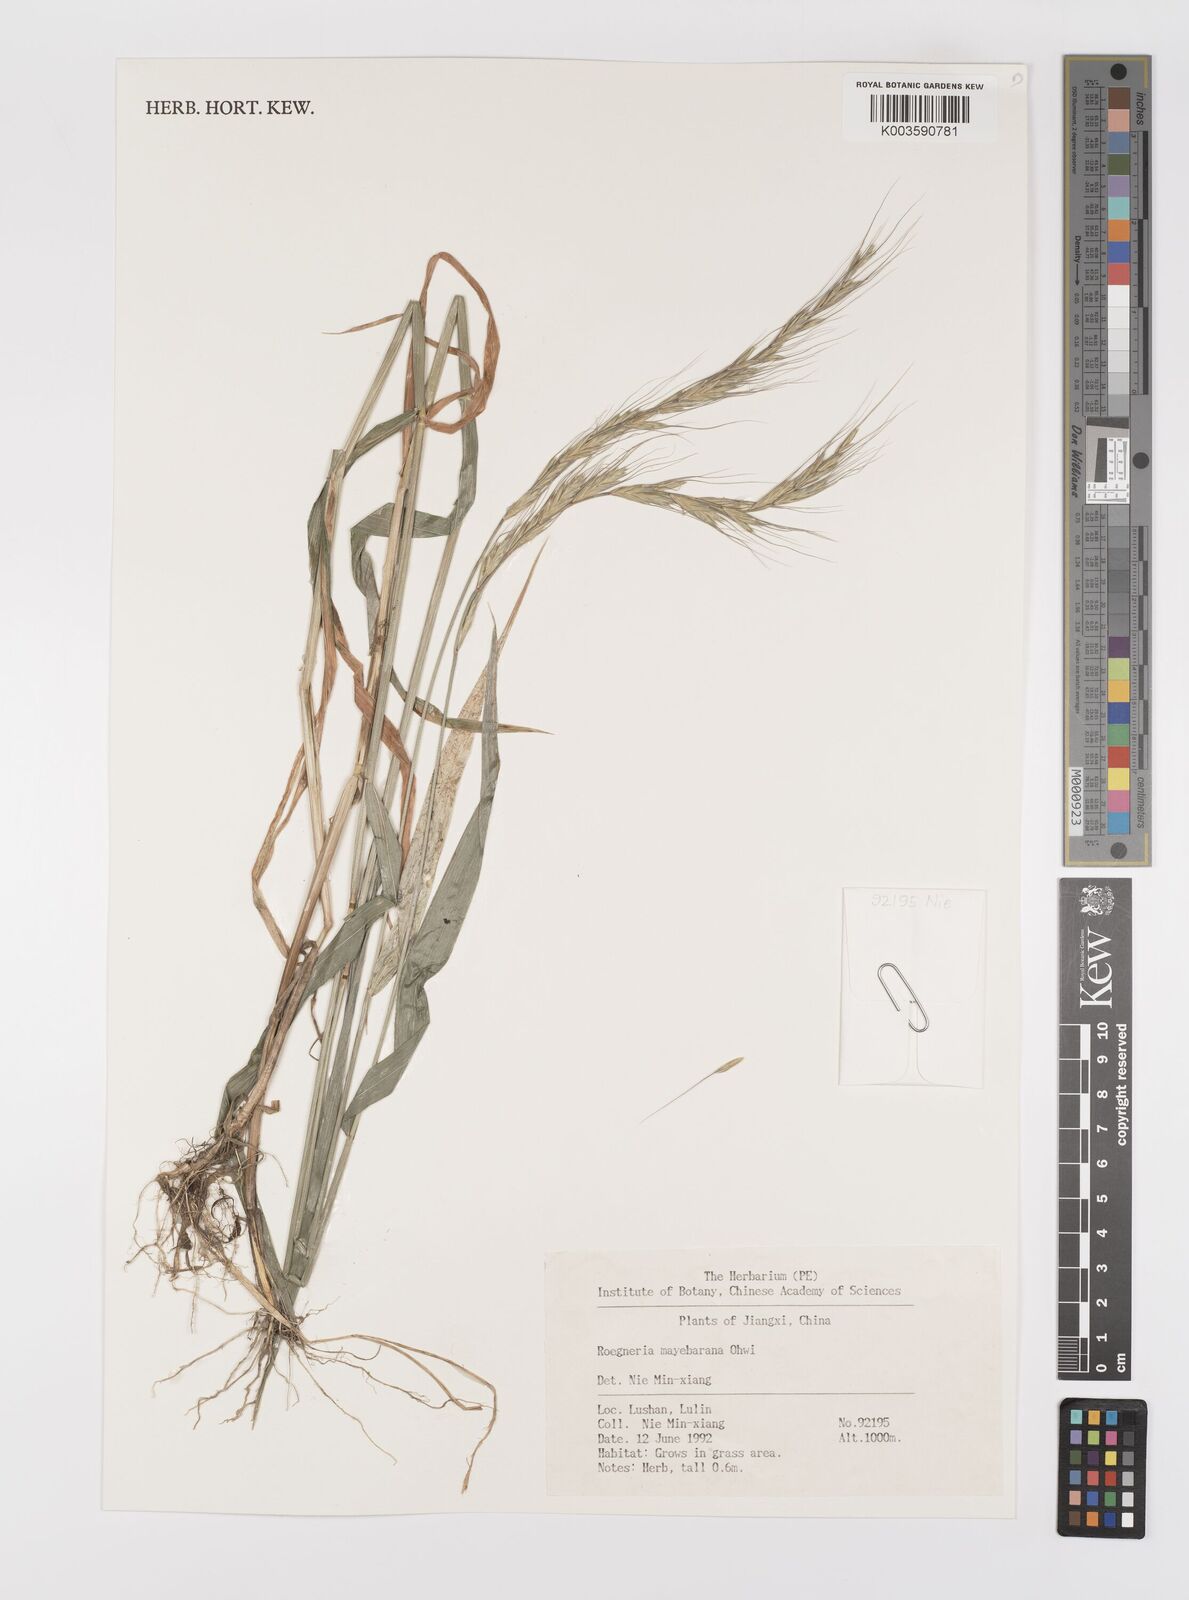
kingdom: Plantae
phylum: Tracheophyta
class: Liliopsida
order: Poales
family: Poaceae
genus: Elymus
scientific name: Elymus humidorum
